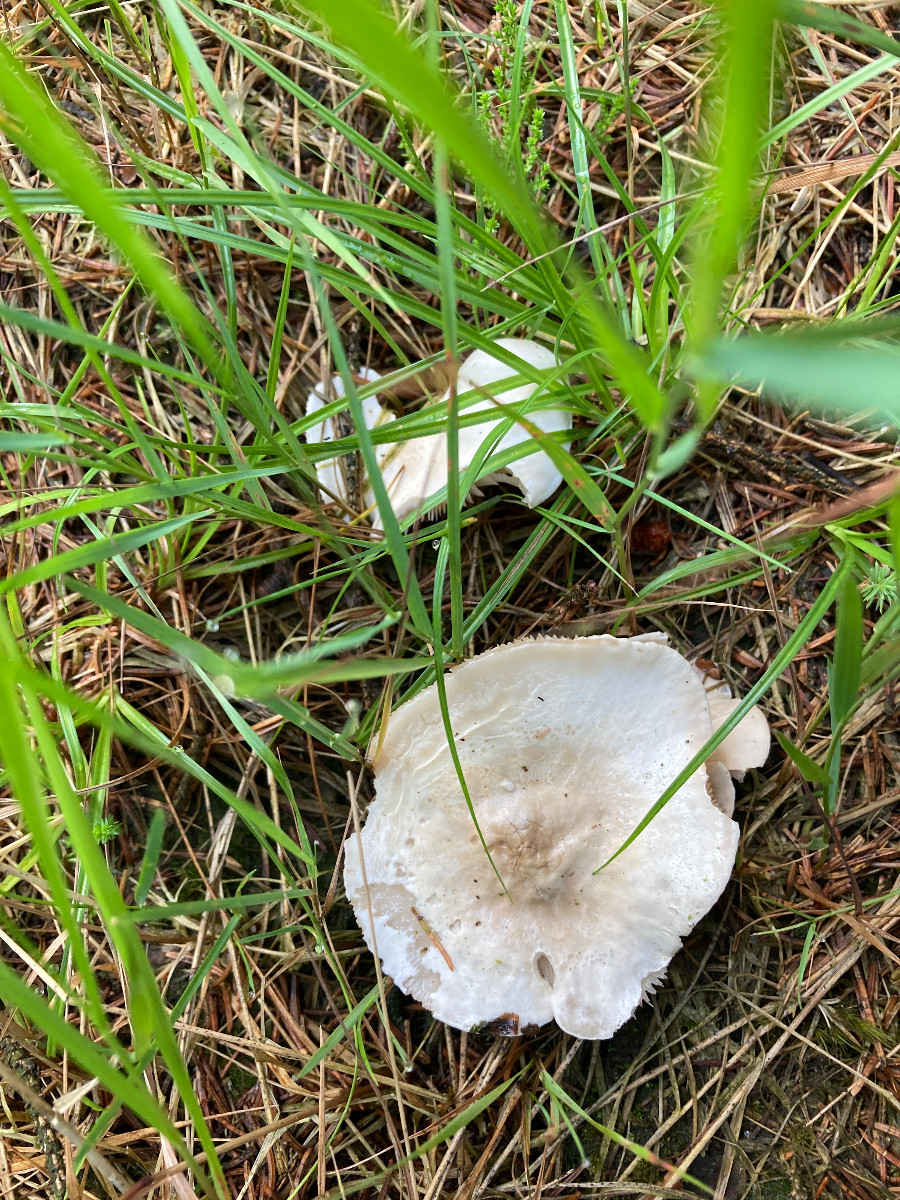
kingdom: Fungi
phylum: Basidiomycota
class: Agaricomycetes
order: Agaricales
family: Entolomataceae
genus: Clitopilus
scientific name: Clitopilus prunulus
